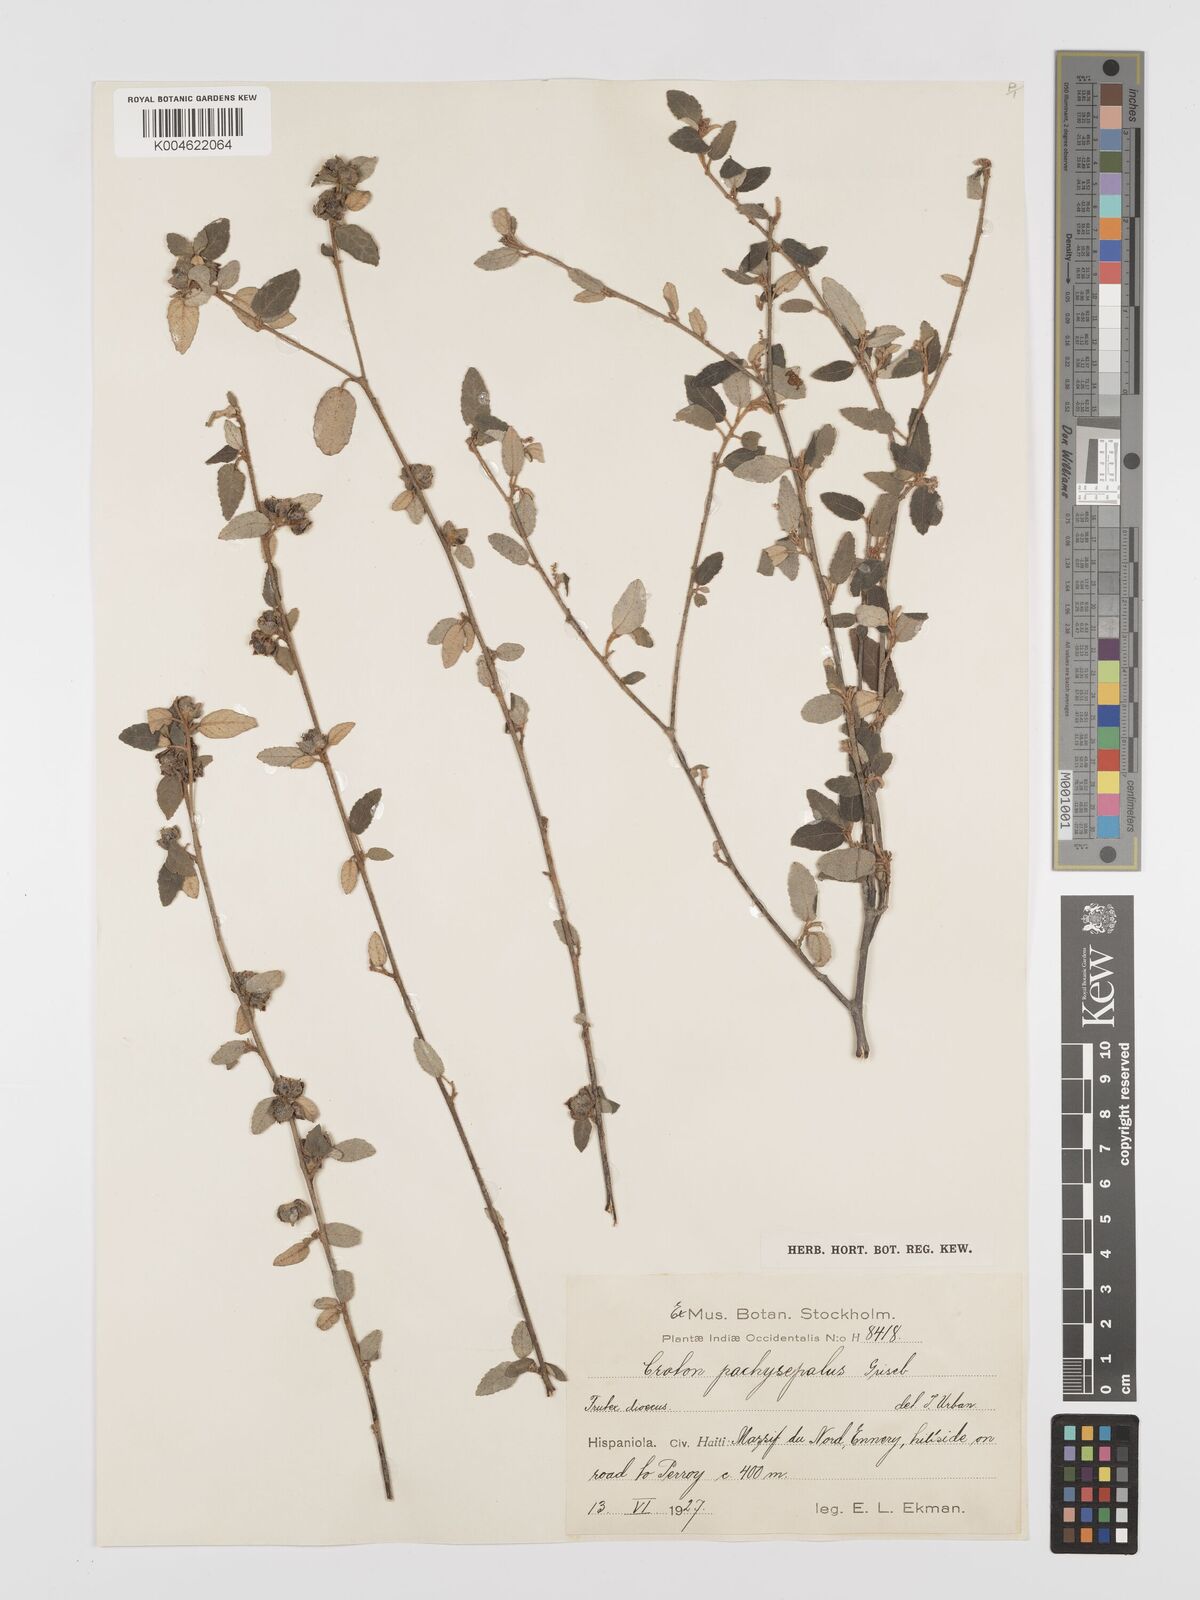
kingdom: Plantae
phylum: Tracheophyta
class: Magnoliopsida
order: Malpighiales
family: Euphorbiaceae
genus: Croton
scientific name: Croton pachysepalus
